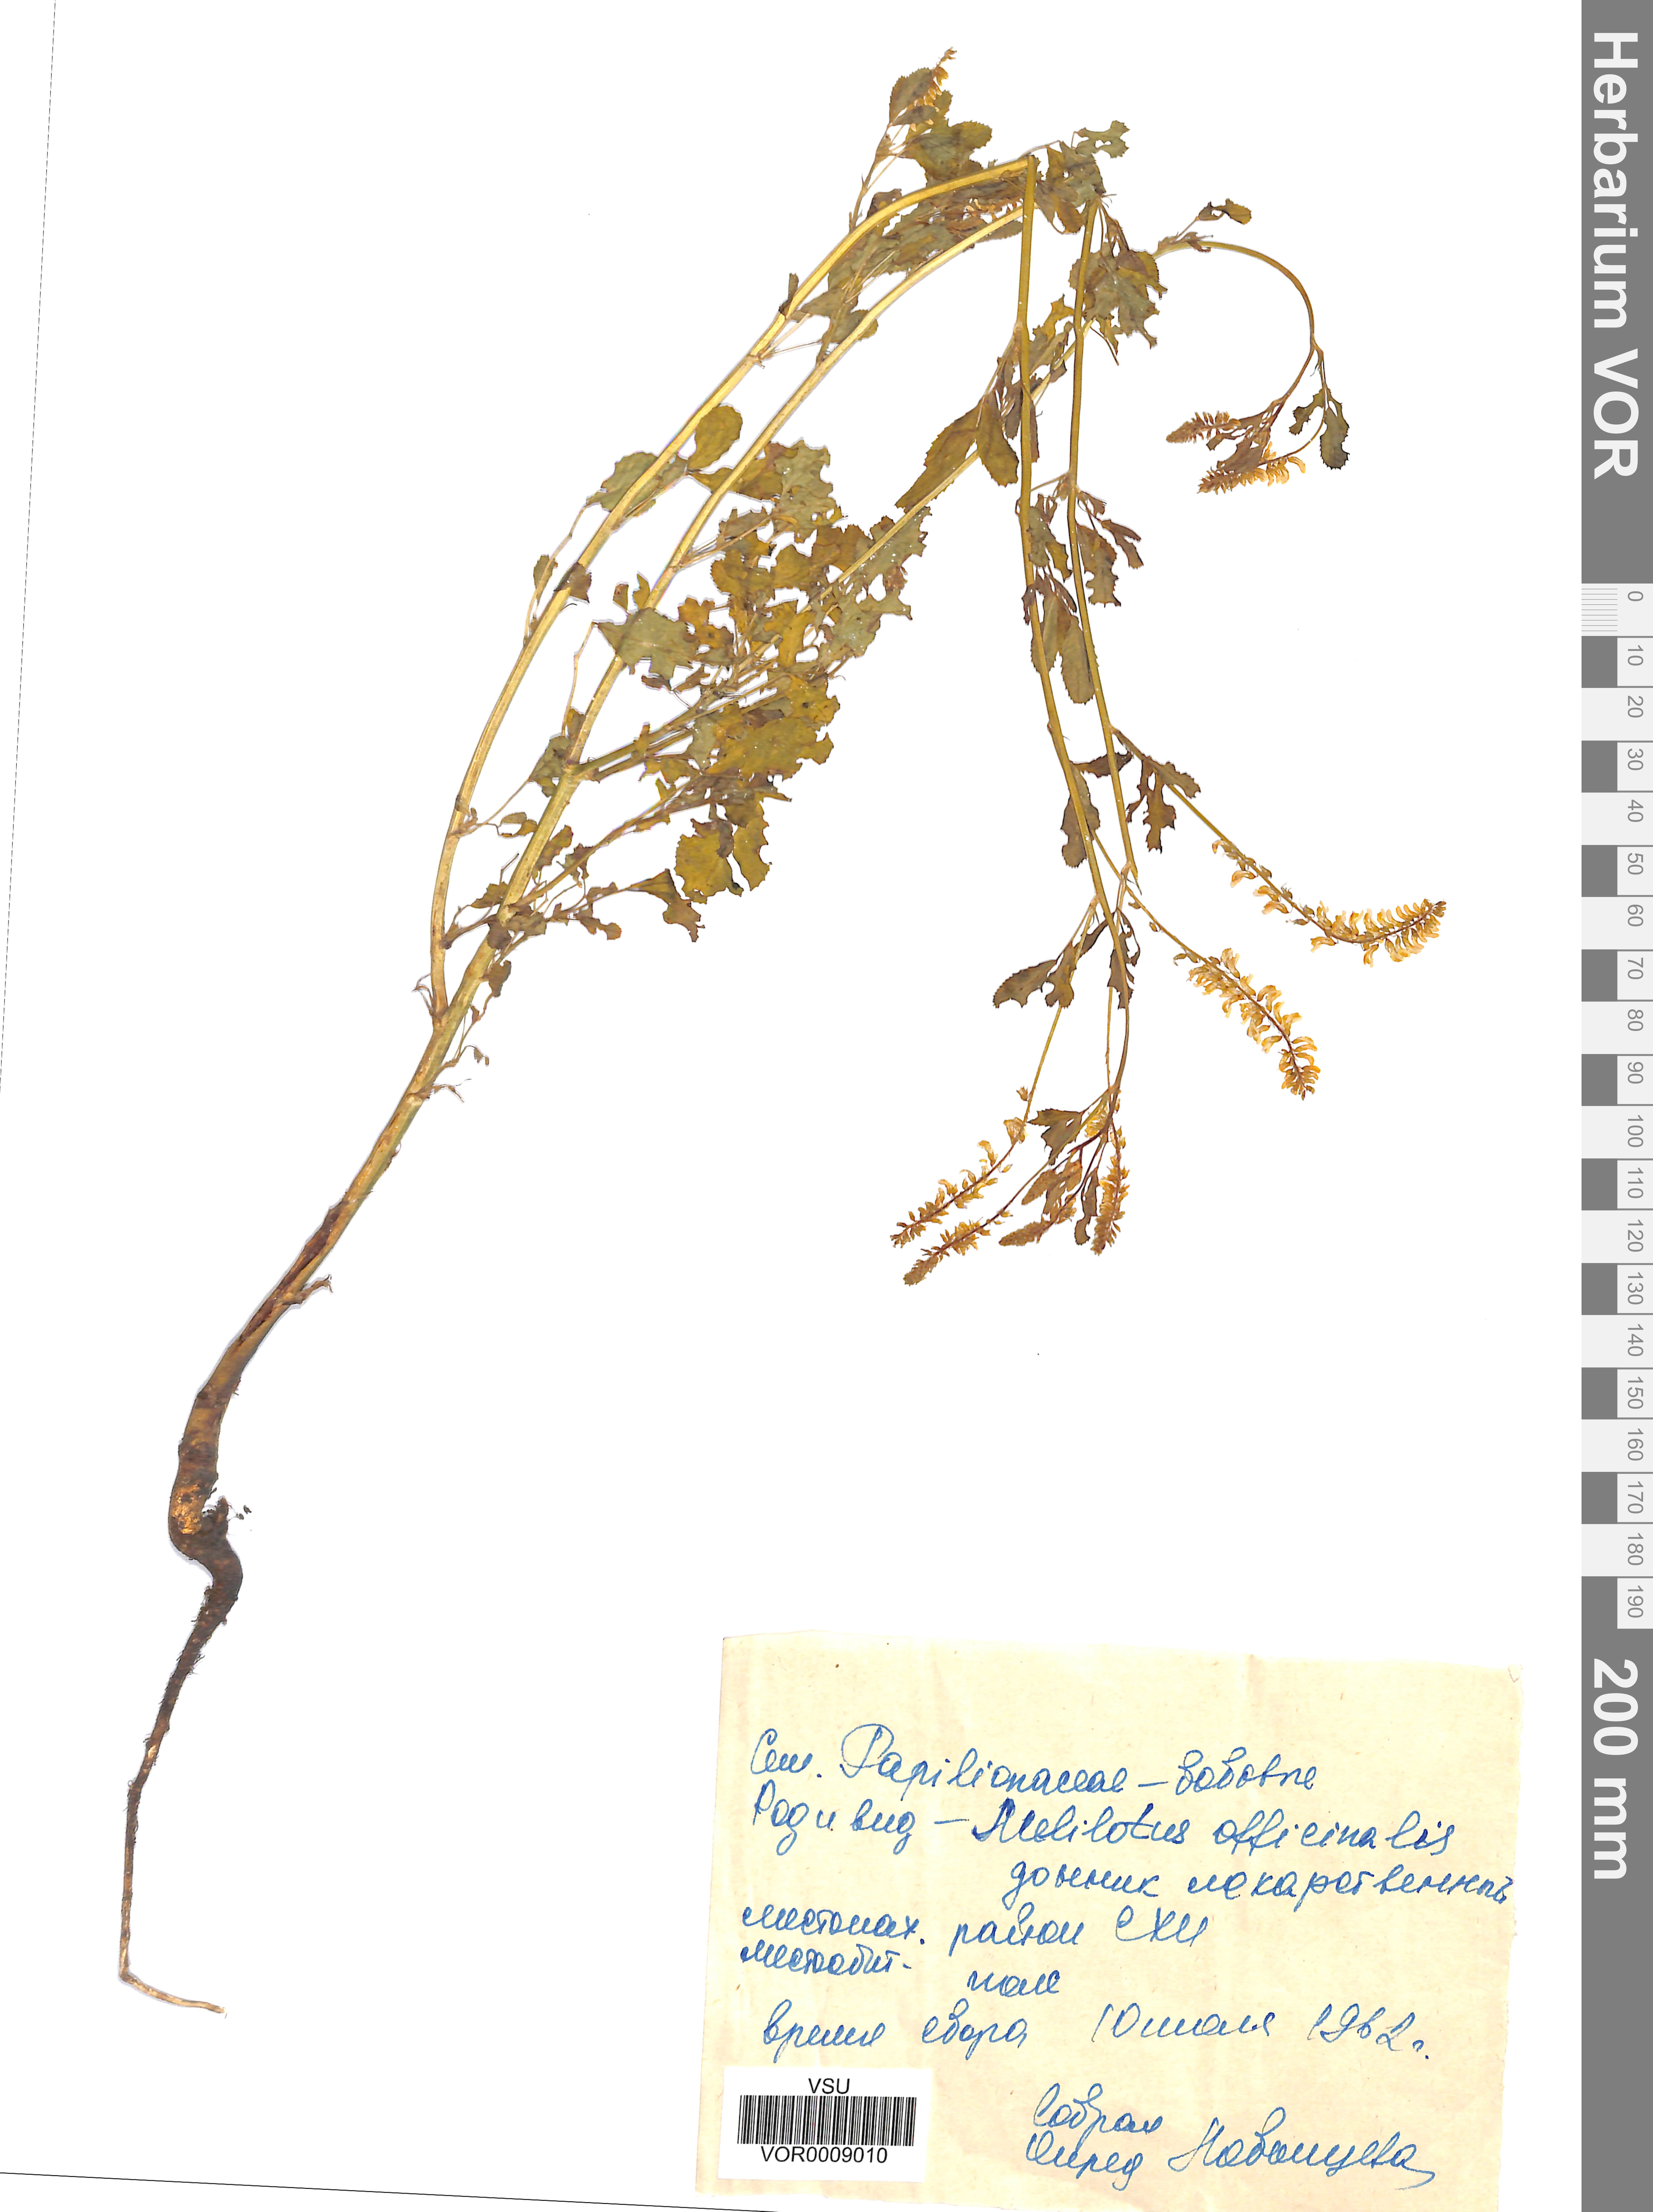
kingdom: Plantae
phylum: Tracheophyta
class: Magnoliopsida
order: Fabales
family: Fabaceae
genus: Melilotus
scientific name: Melilotus officinalis
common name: Sweetclover
